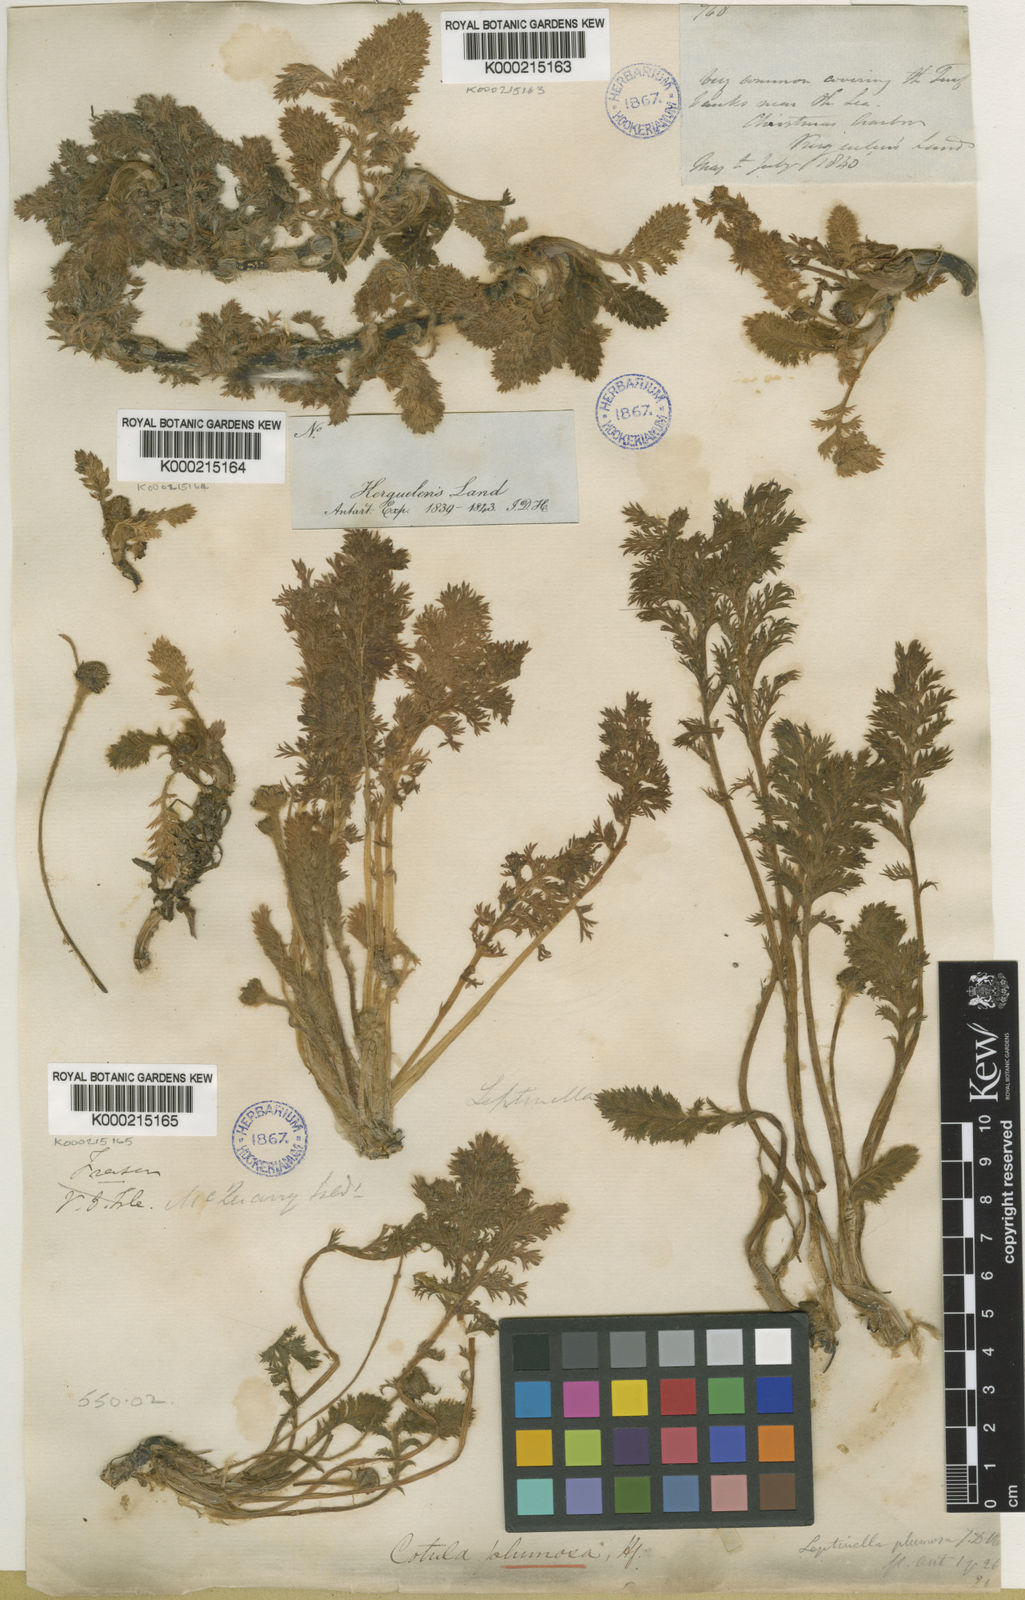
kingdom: Plantae
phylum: Tracheophyta
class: Magnoliopsida
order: Asterales
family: Asteraceae
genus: Leptinella
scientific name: Leptinella
